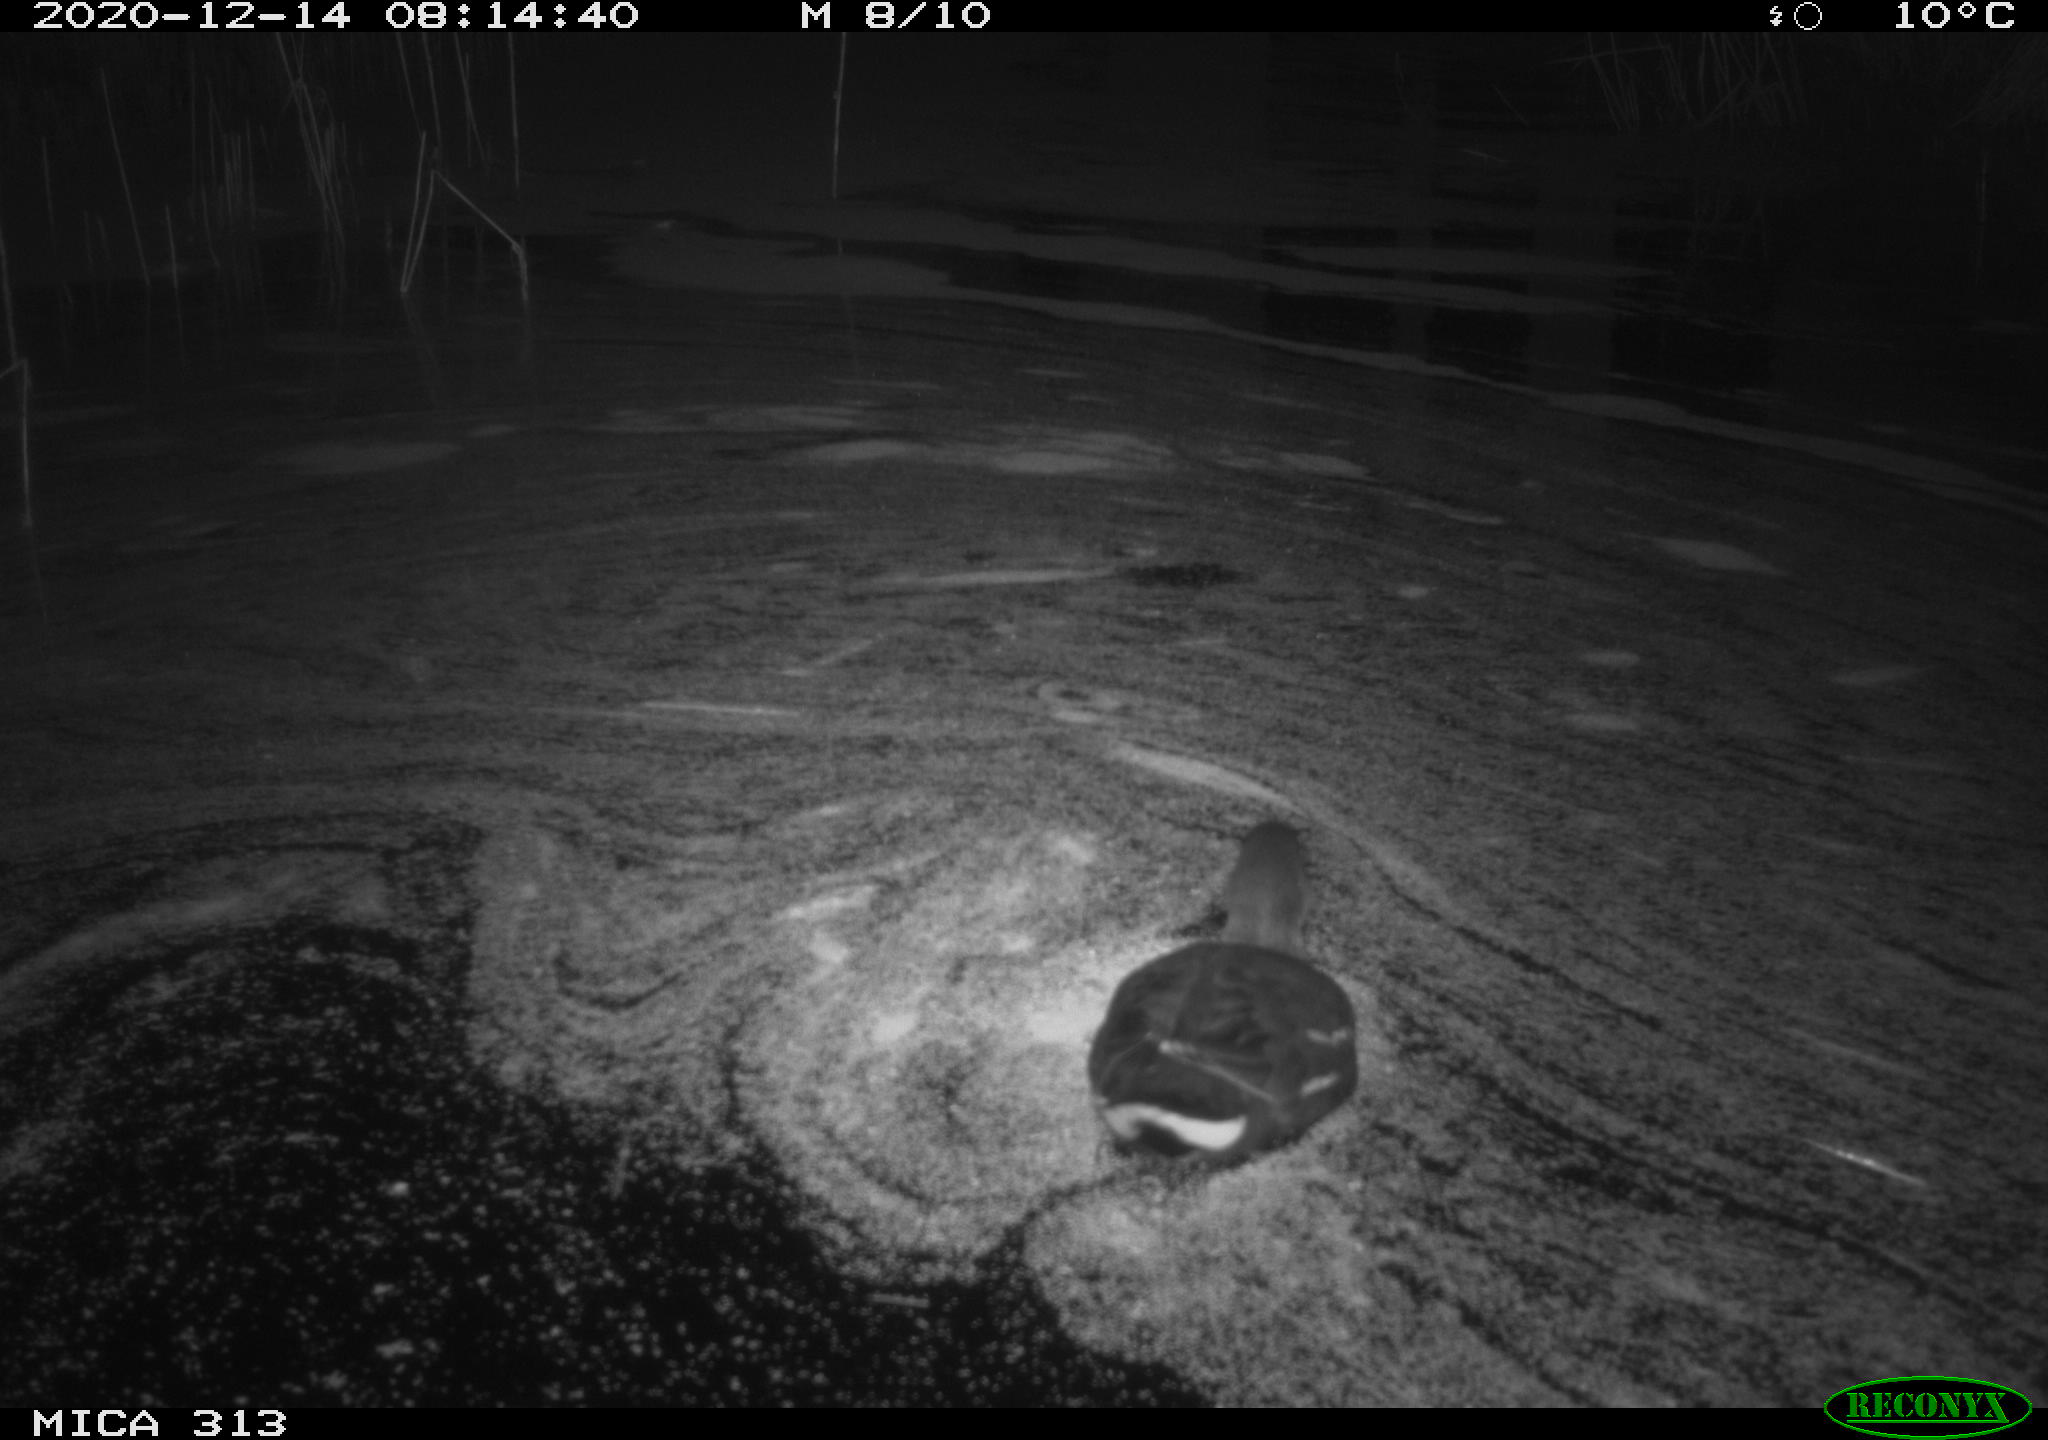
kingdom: Animalia
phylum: Chordata
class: Aves
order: Gruiformes
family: Rallidae
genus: Gallinula
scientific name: Gallinula chloropus
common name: Common moorhen
